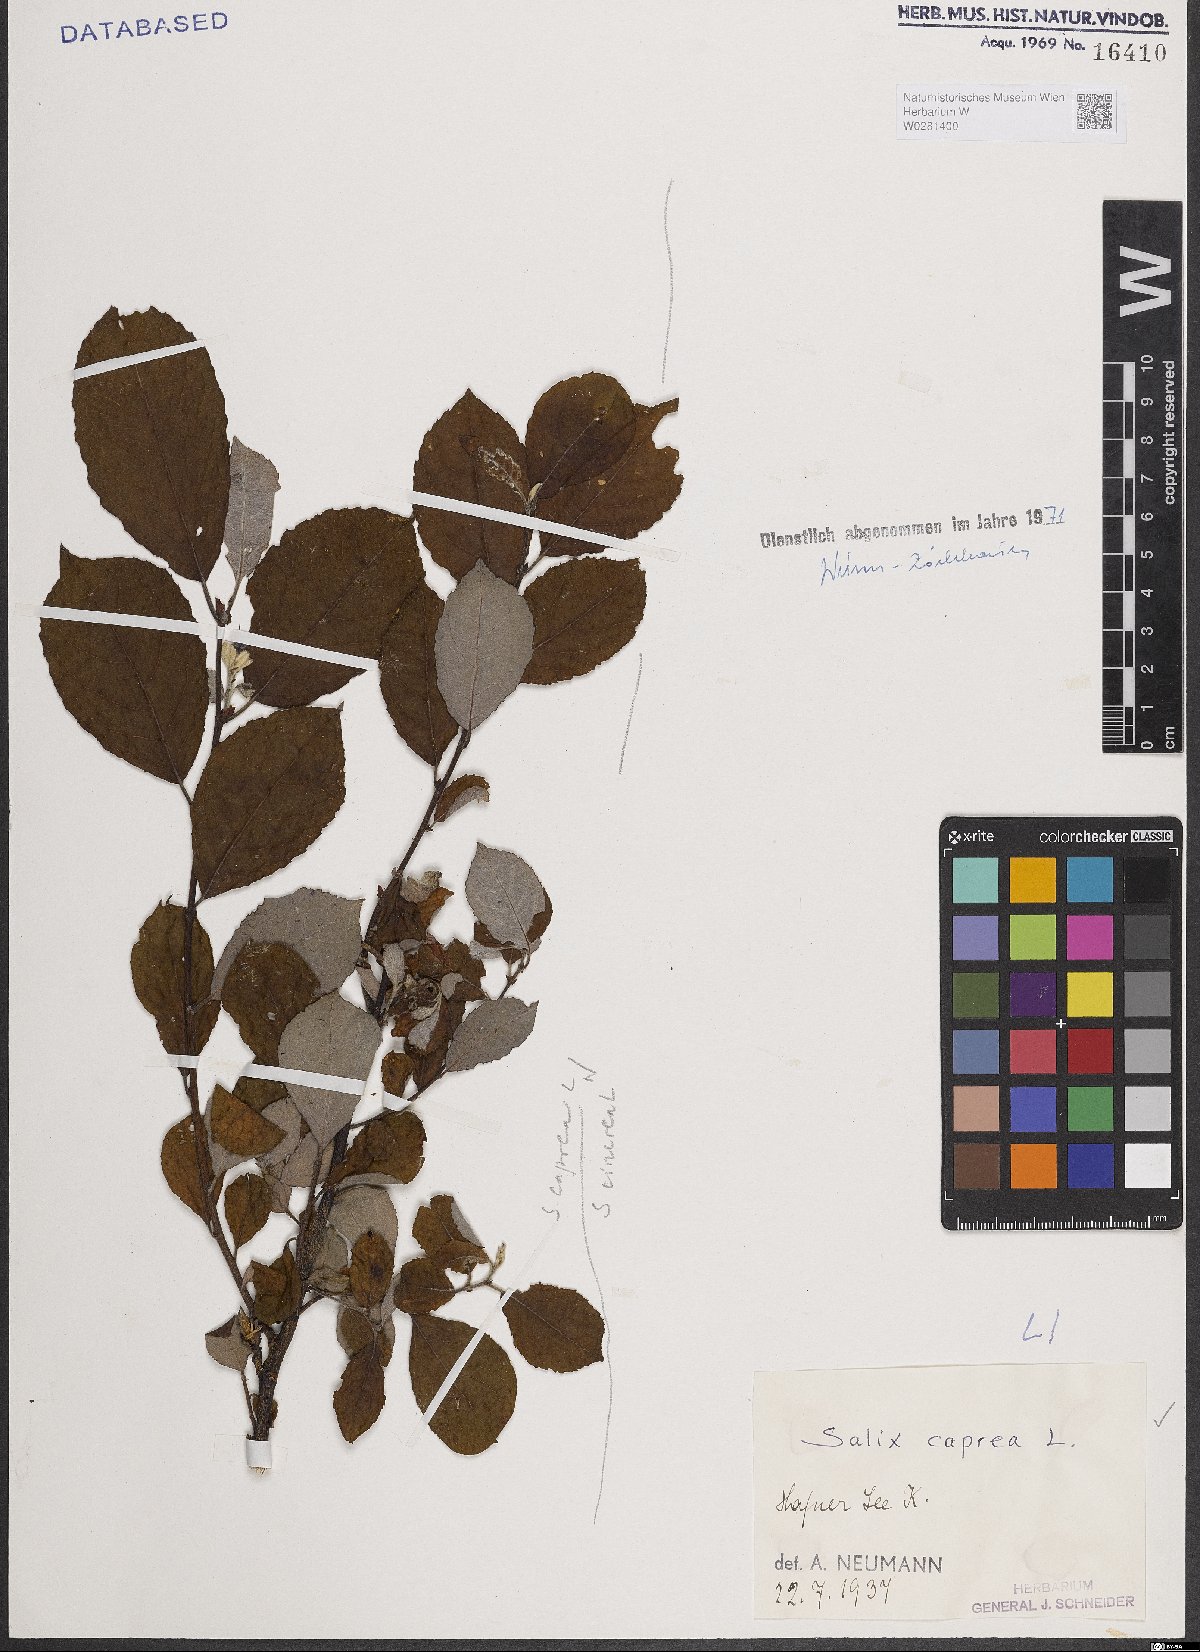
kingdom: Plantae
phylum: Tracheophyta
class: Magnoliopsida
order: Malpighiales
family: Salicaceae
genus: Salix
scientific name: Salix caprea
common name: Goat willow
